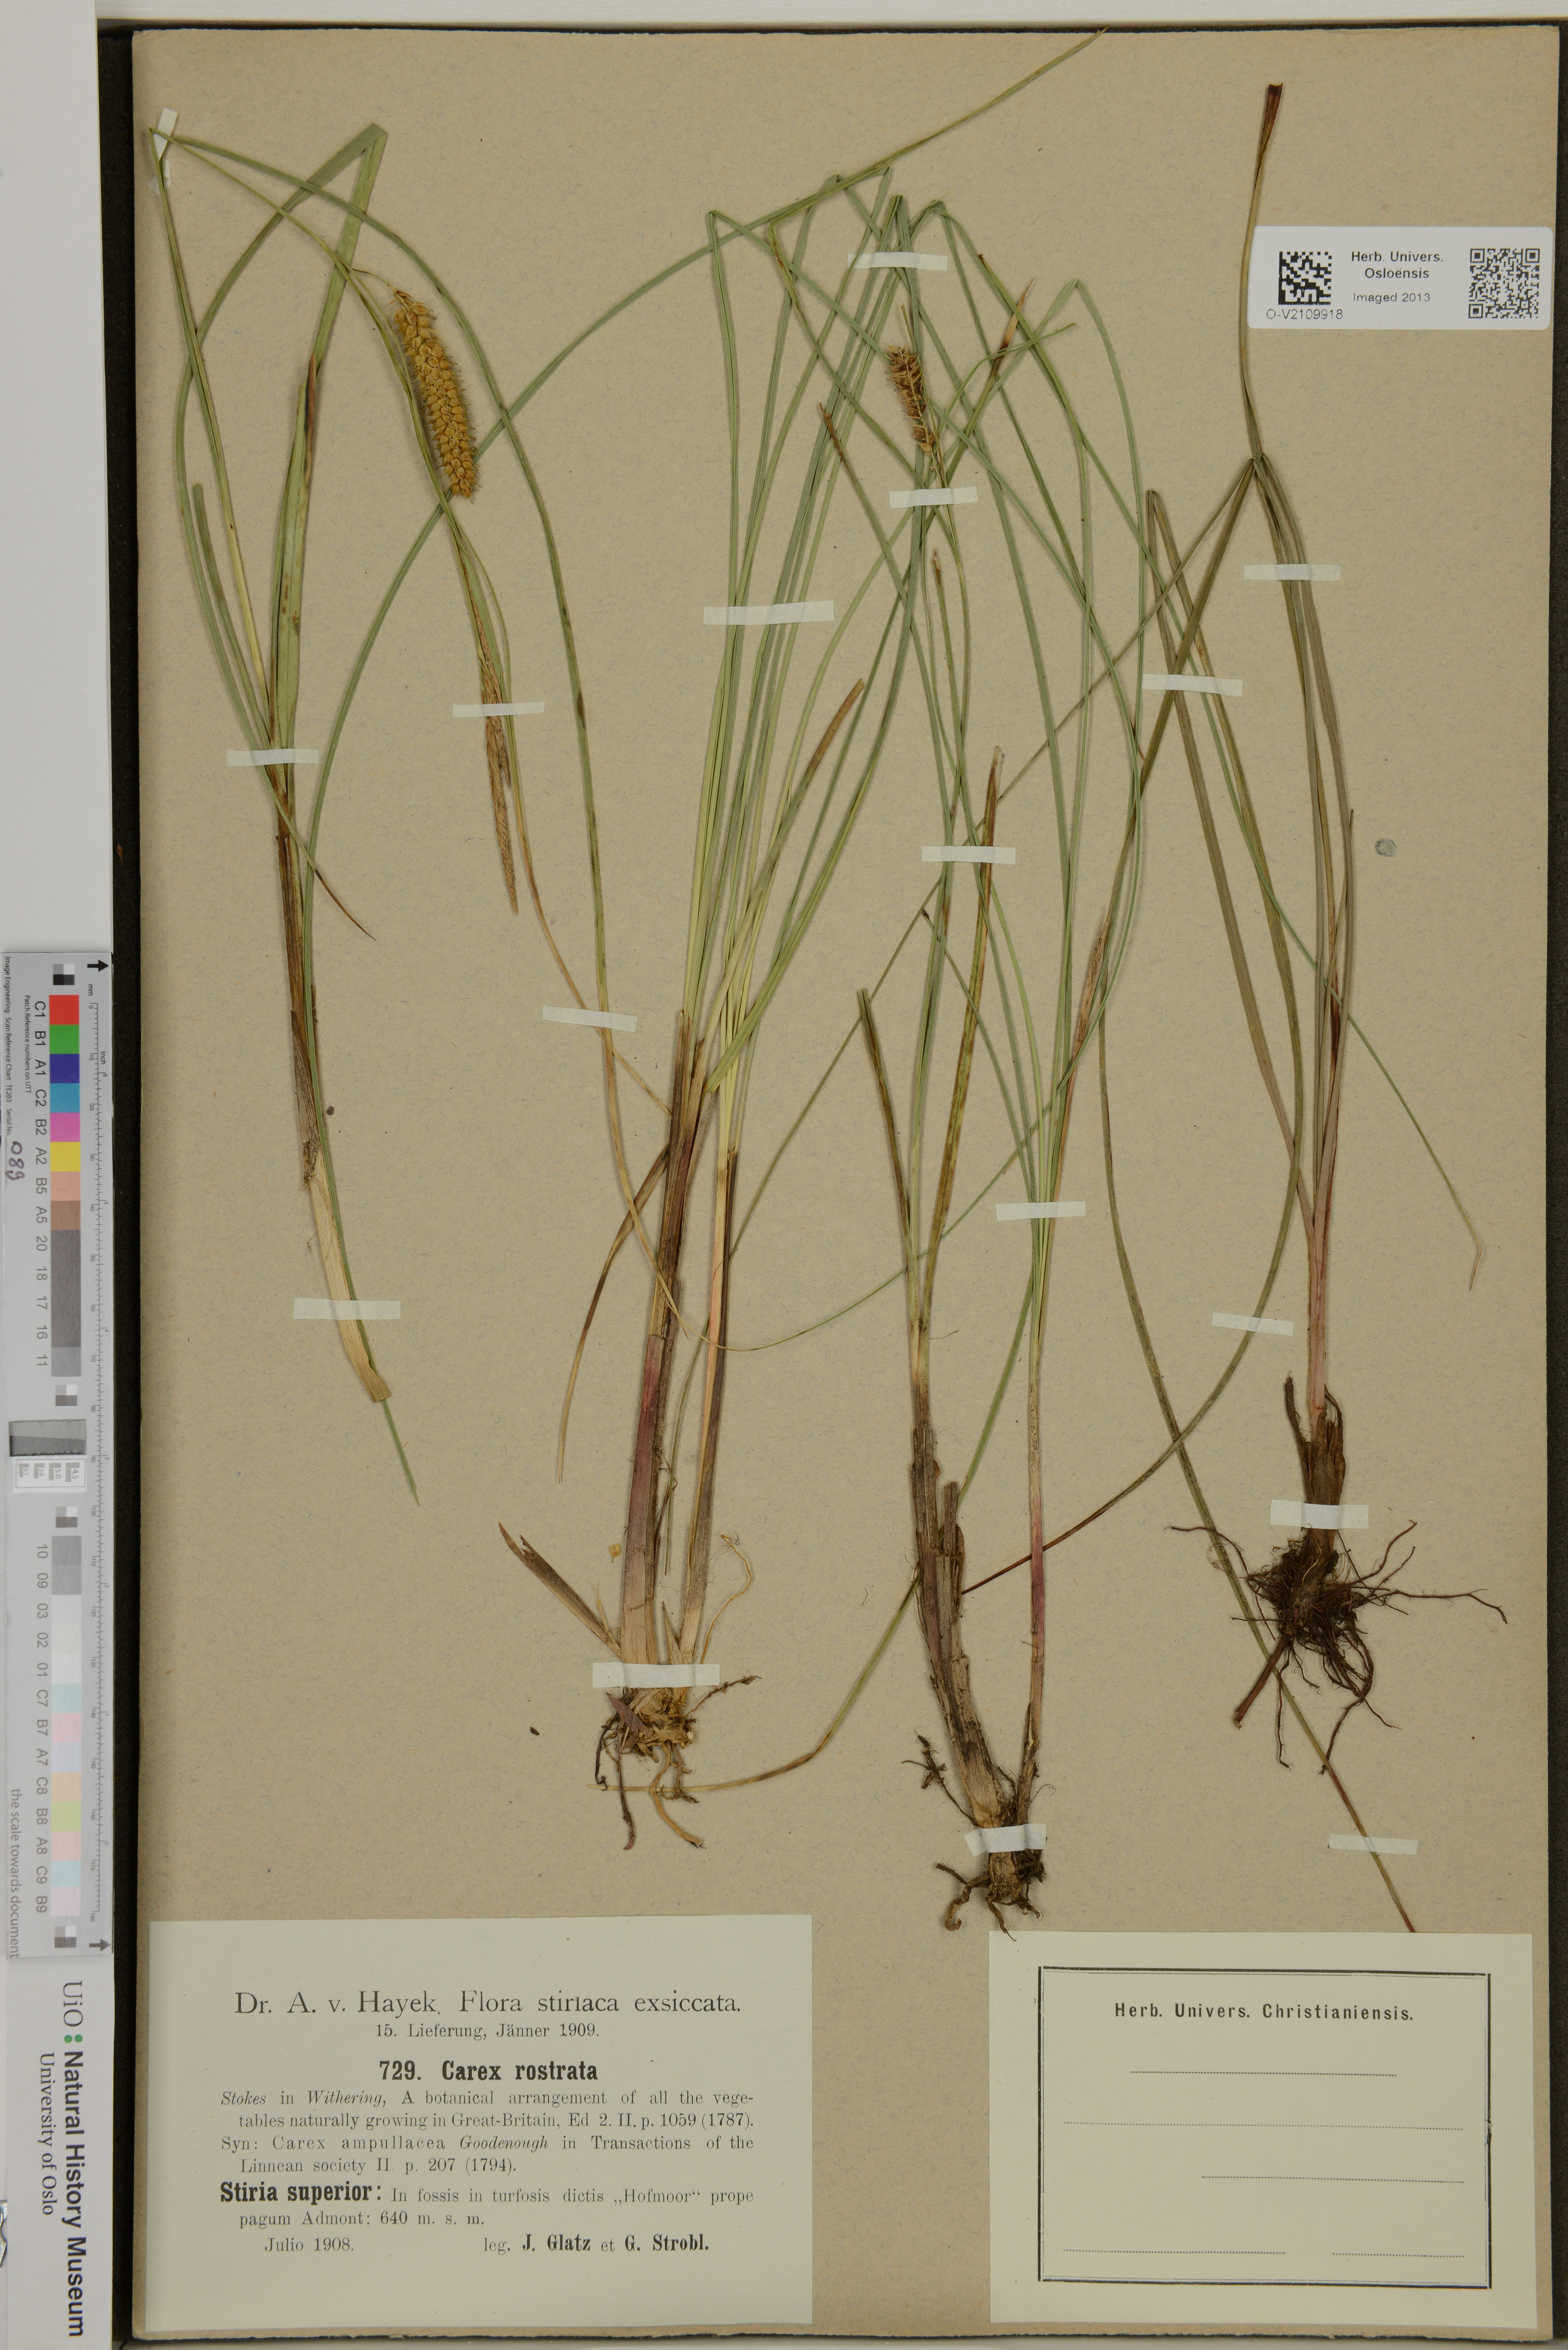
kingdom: Plantae
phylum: Tracheophyta
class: Liliopsida
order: Poales
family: Cyperaceae
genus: Carex
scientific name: Carex rostrata
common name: Bottle sedge
